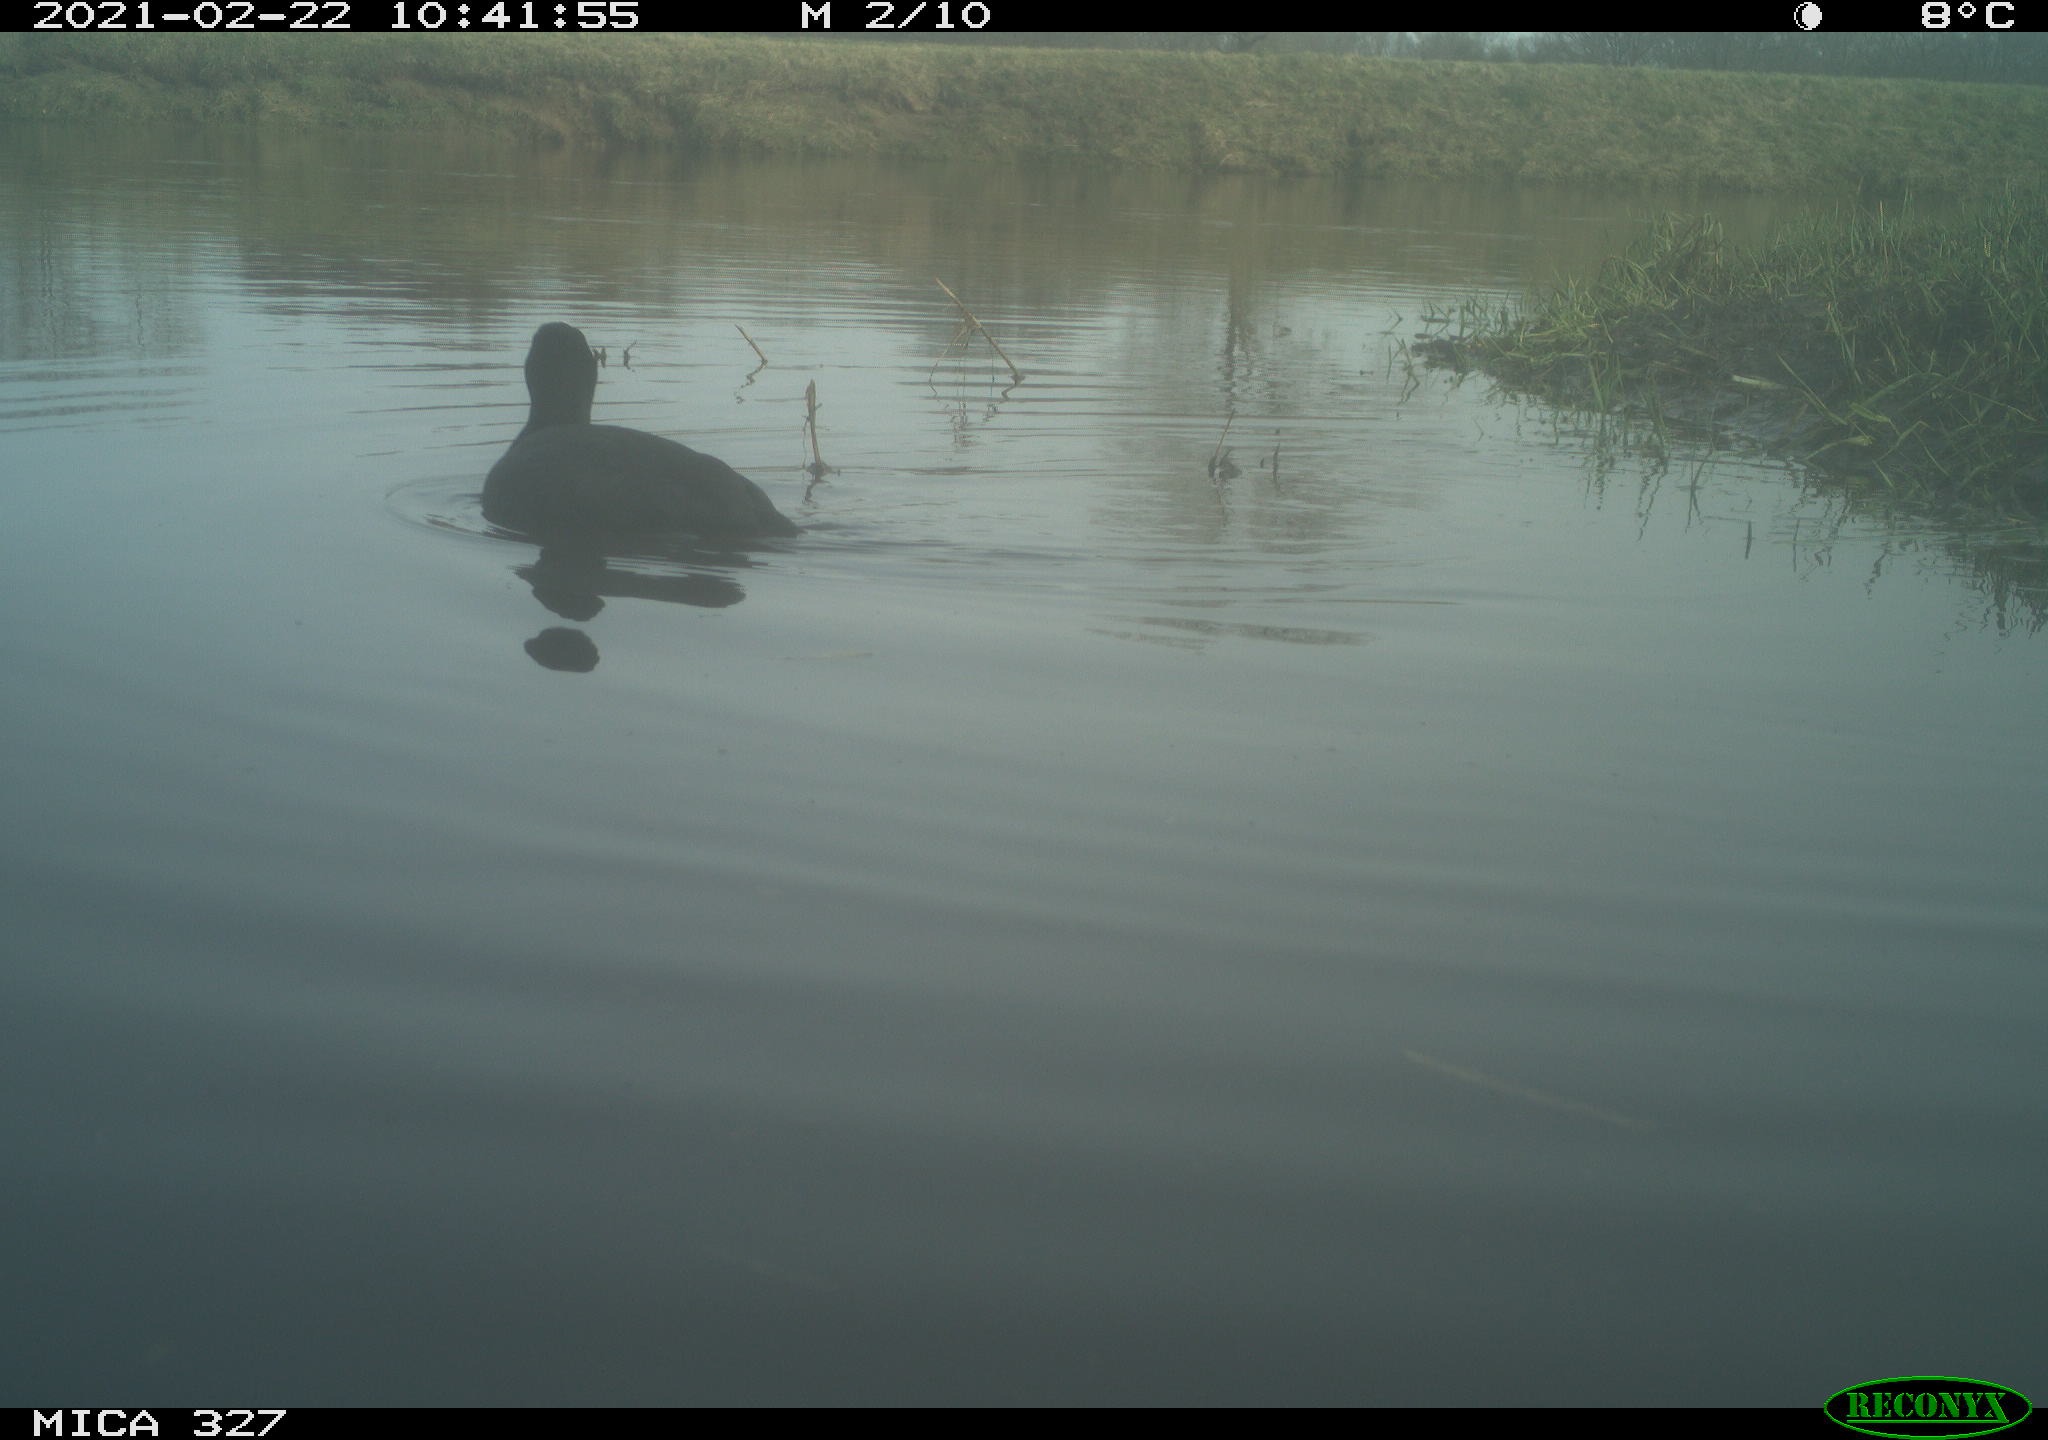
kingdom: Animalia
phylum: Chordata
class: Aves
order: Gruiformes
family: Rallidae
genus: Fulica
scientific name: Fulica atra
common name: Eurasian coot
